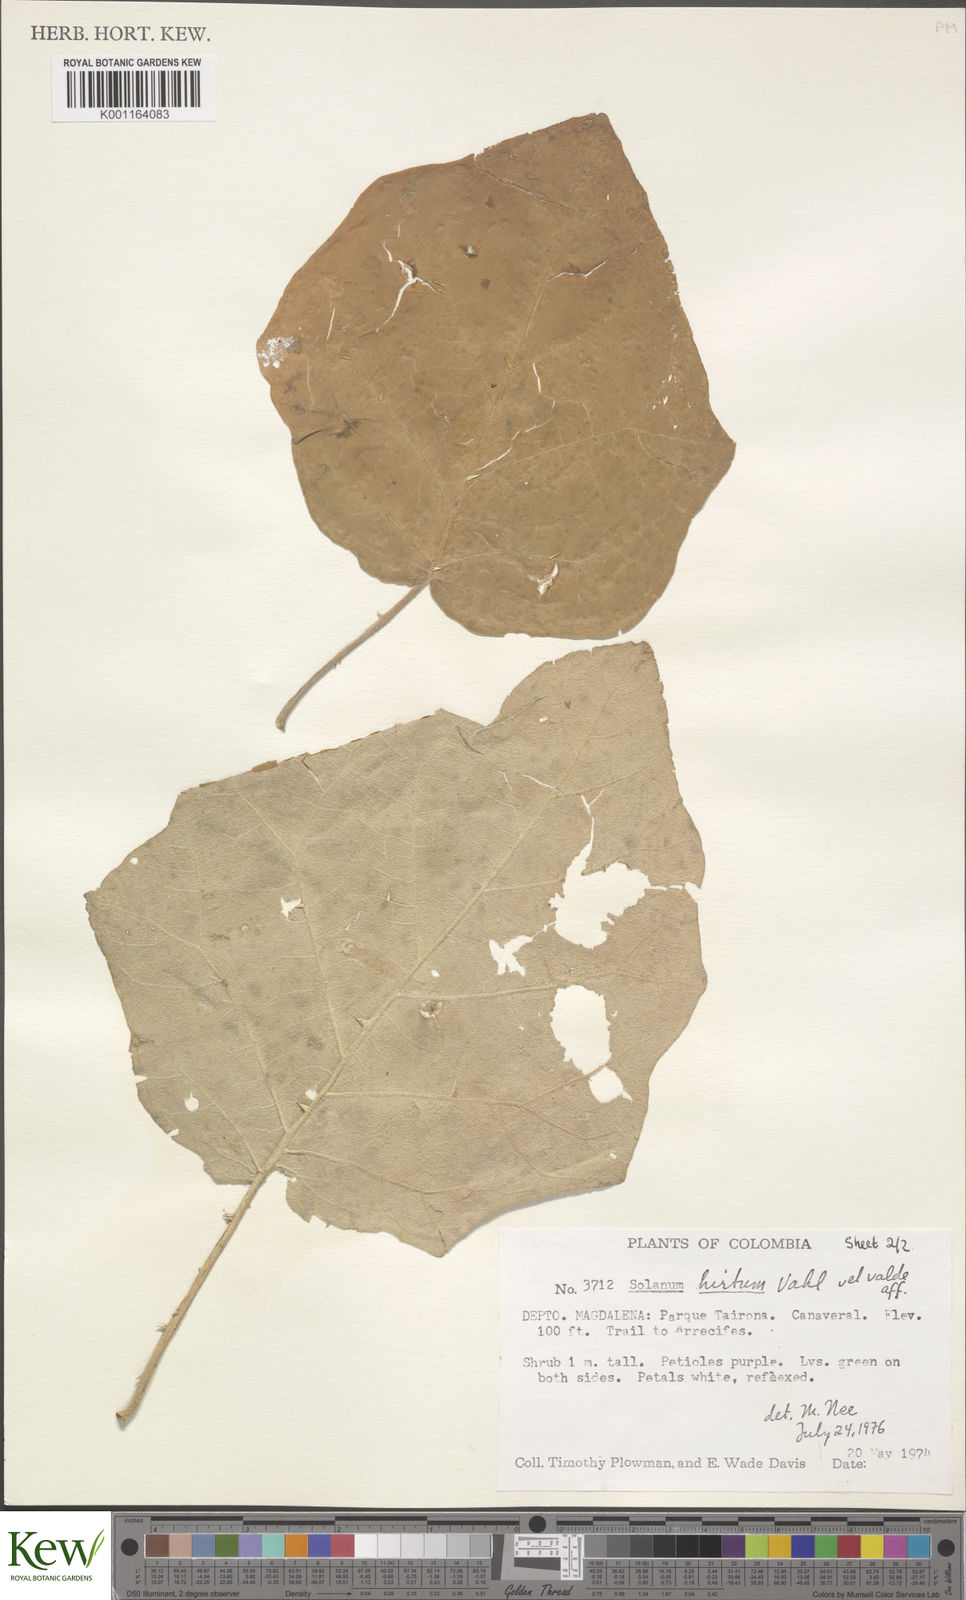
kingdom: Plantae
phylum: Tracheophyta
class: Magnoliopsida
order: Solanales
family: Solanaceae
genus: Solanum
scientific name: Solanum hirtum
